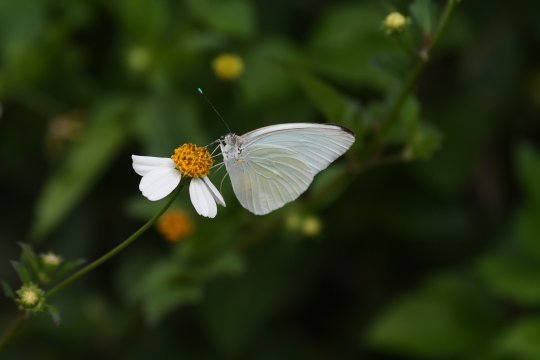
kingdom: Animalia
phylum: Arthropoda
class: Insecta
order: Lepidoptera
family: Pieridae
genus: Ascia
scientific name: Ascia monuste
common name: Great Southern White
